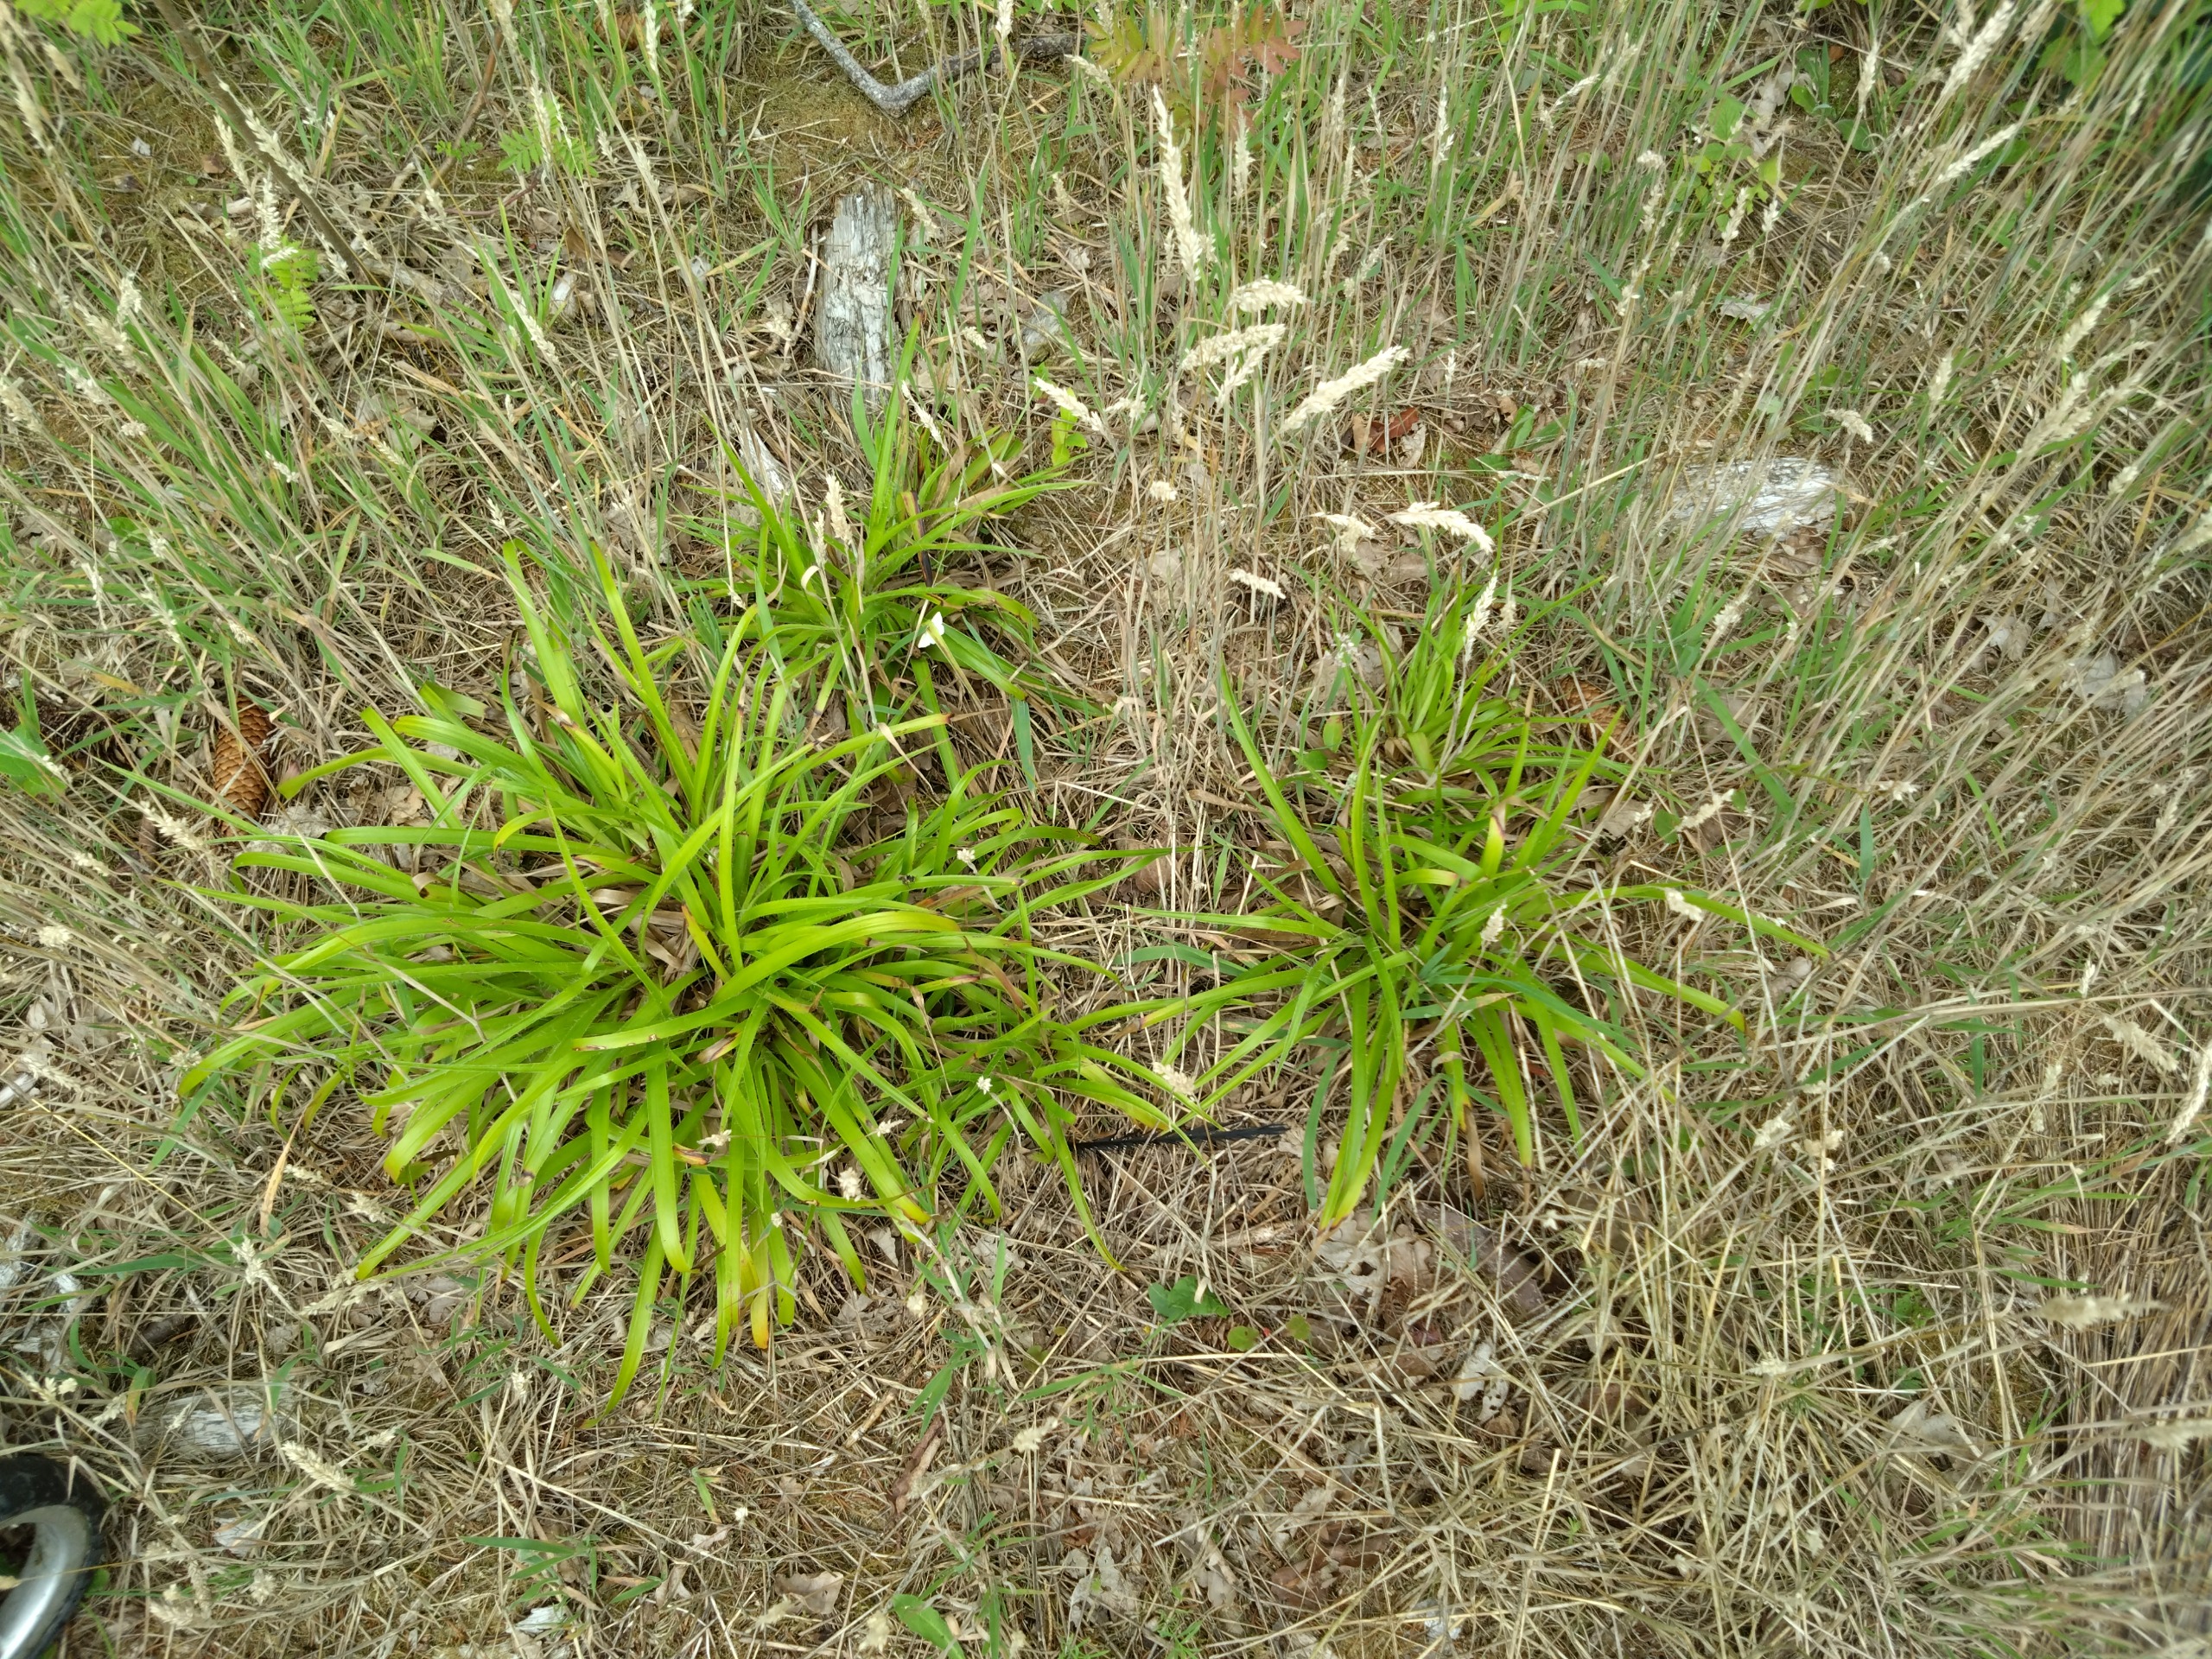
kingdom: Plantae
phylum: Tracheophyta
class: Liliopsida
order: Poales
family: Juncaceae
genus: Luzula
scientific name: Luzula sylvatica
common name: Stor frytle
